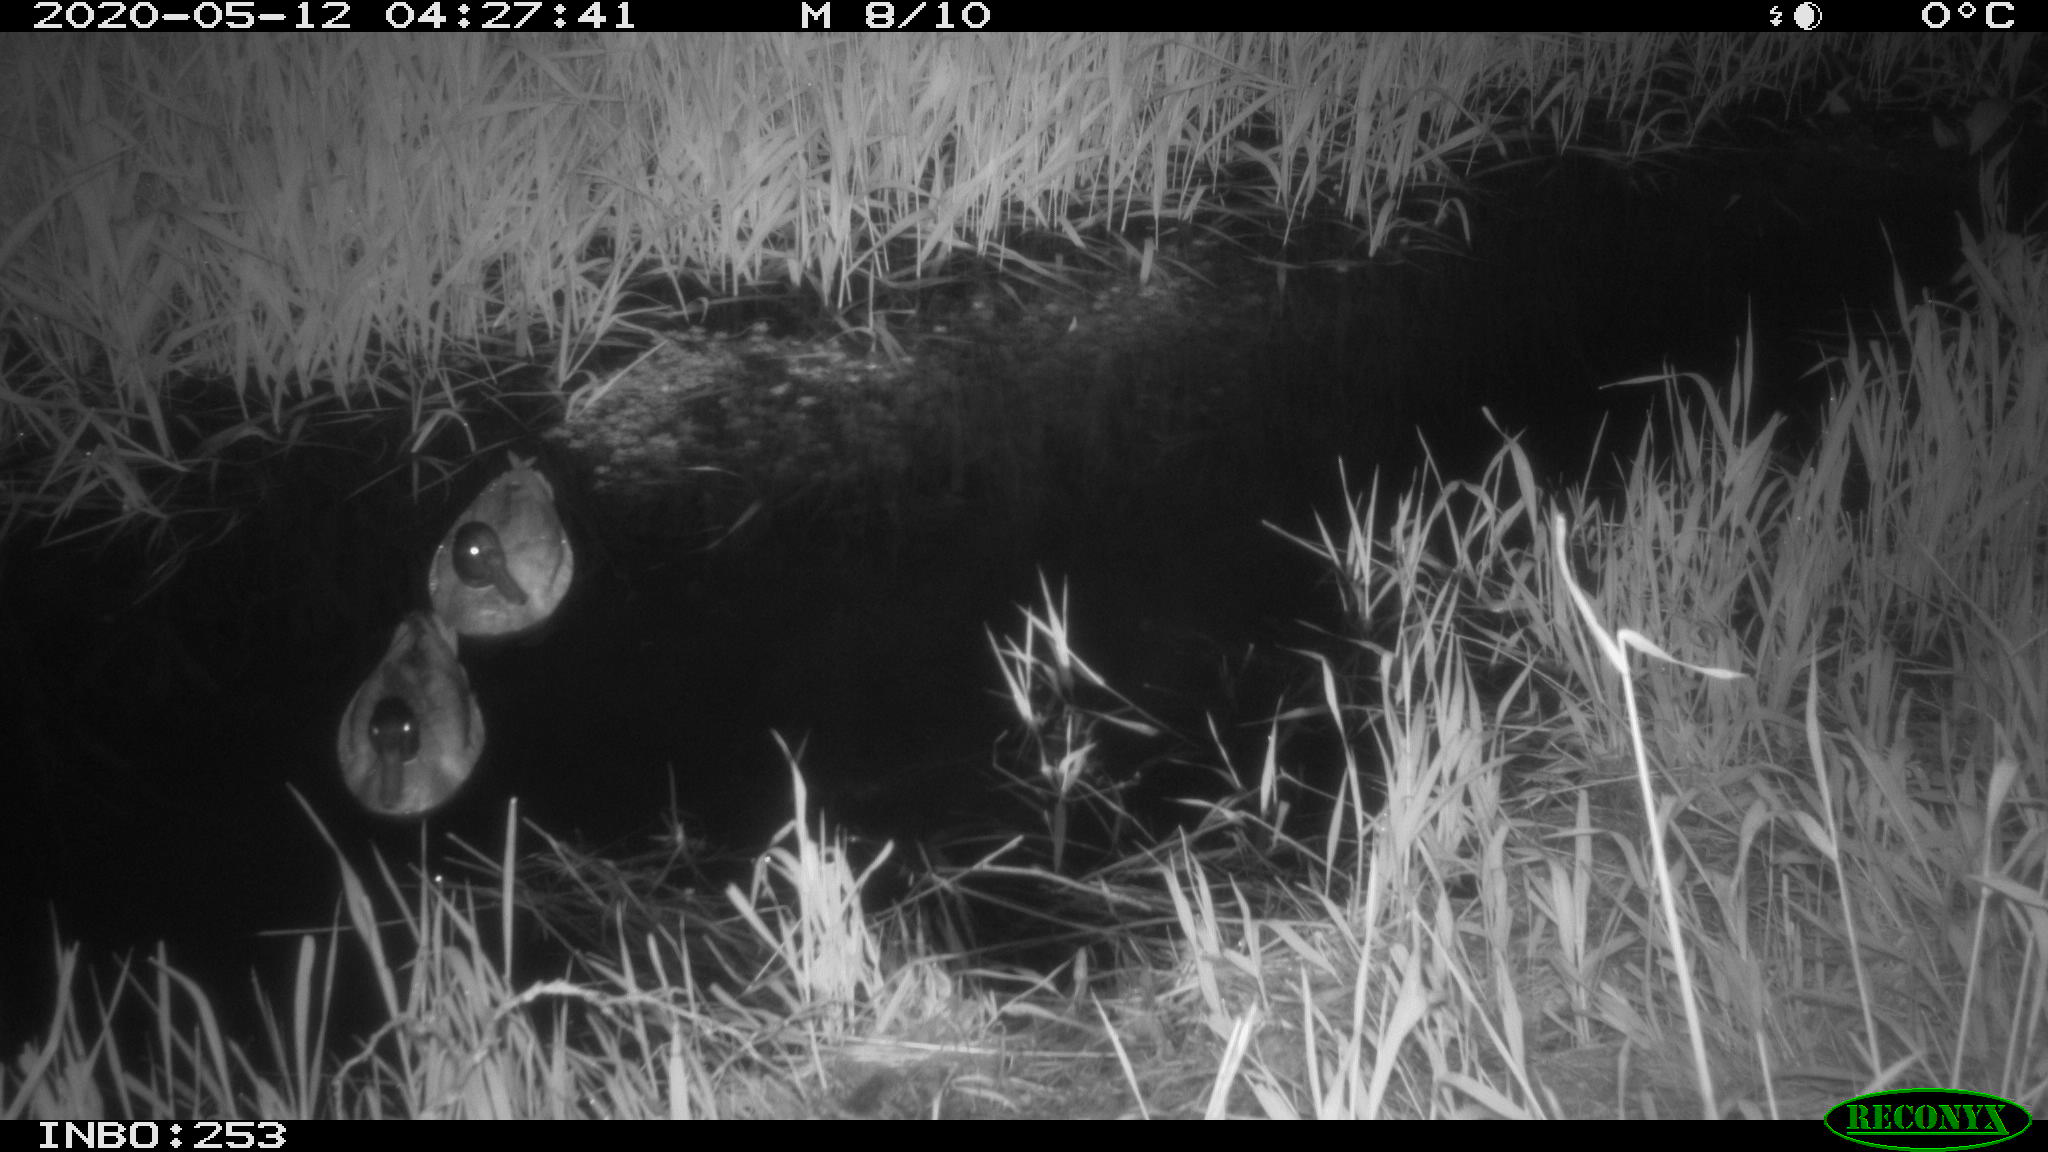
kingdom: Animalia
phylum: Chordata
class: Aves
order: Anseriformes
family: Anatidae
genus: Anas
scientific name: Anas platyrhynchos
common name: Mallard
